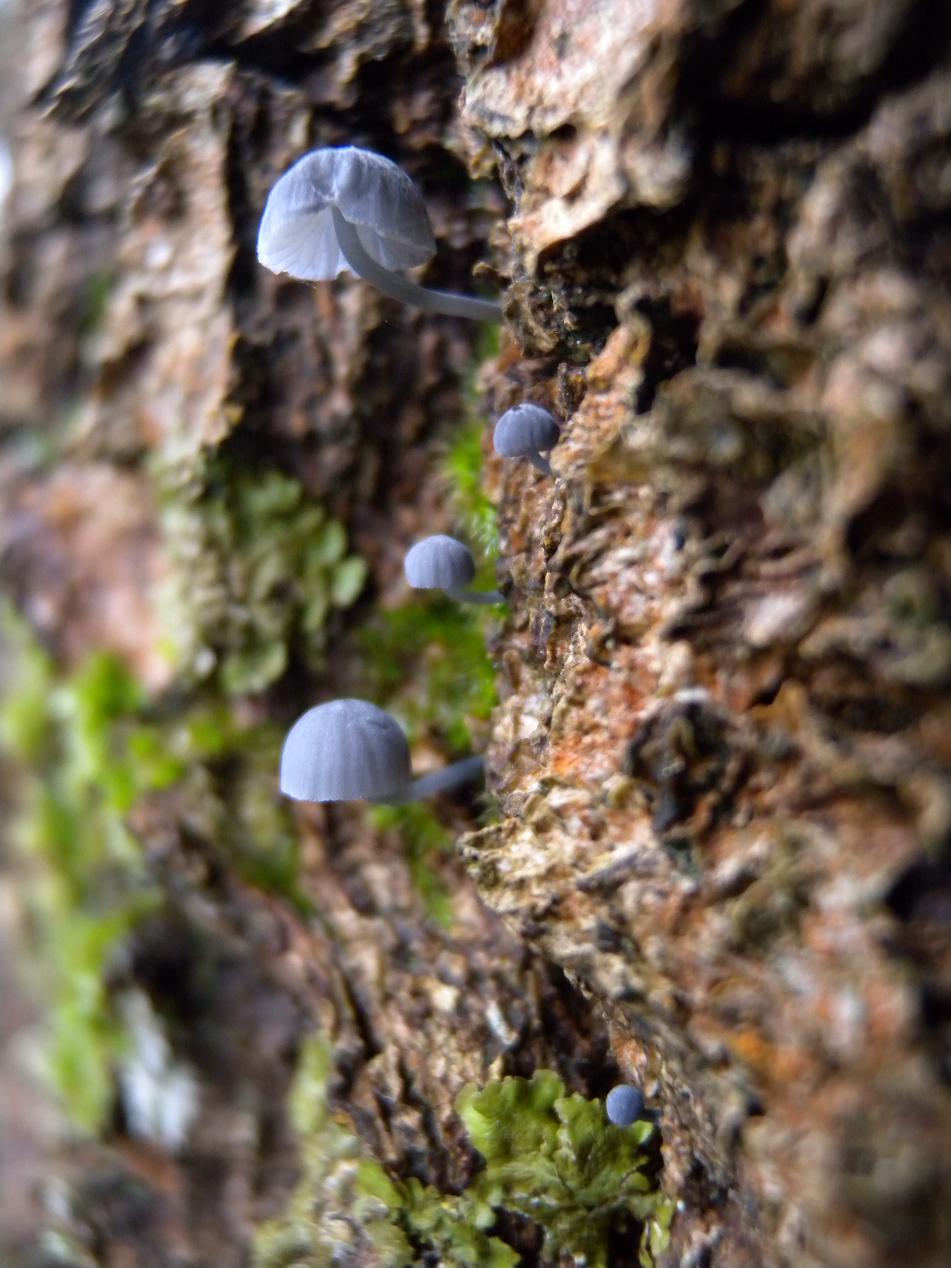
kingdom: Fungi
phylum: Basidiomycota
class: Agaricomycetes
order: Agaricales
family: Mycenaceae
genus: Mycena
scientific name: Mycena pseudocorticola
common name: gråblå bark-huesvamp
